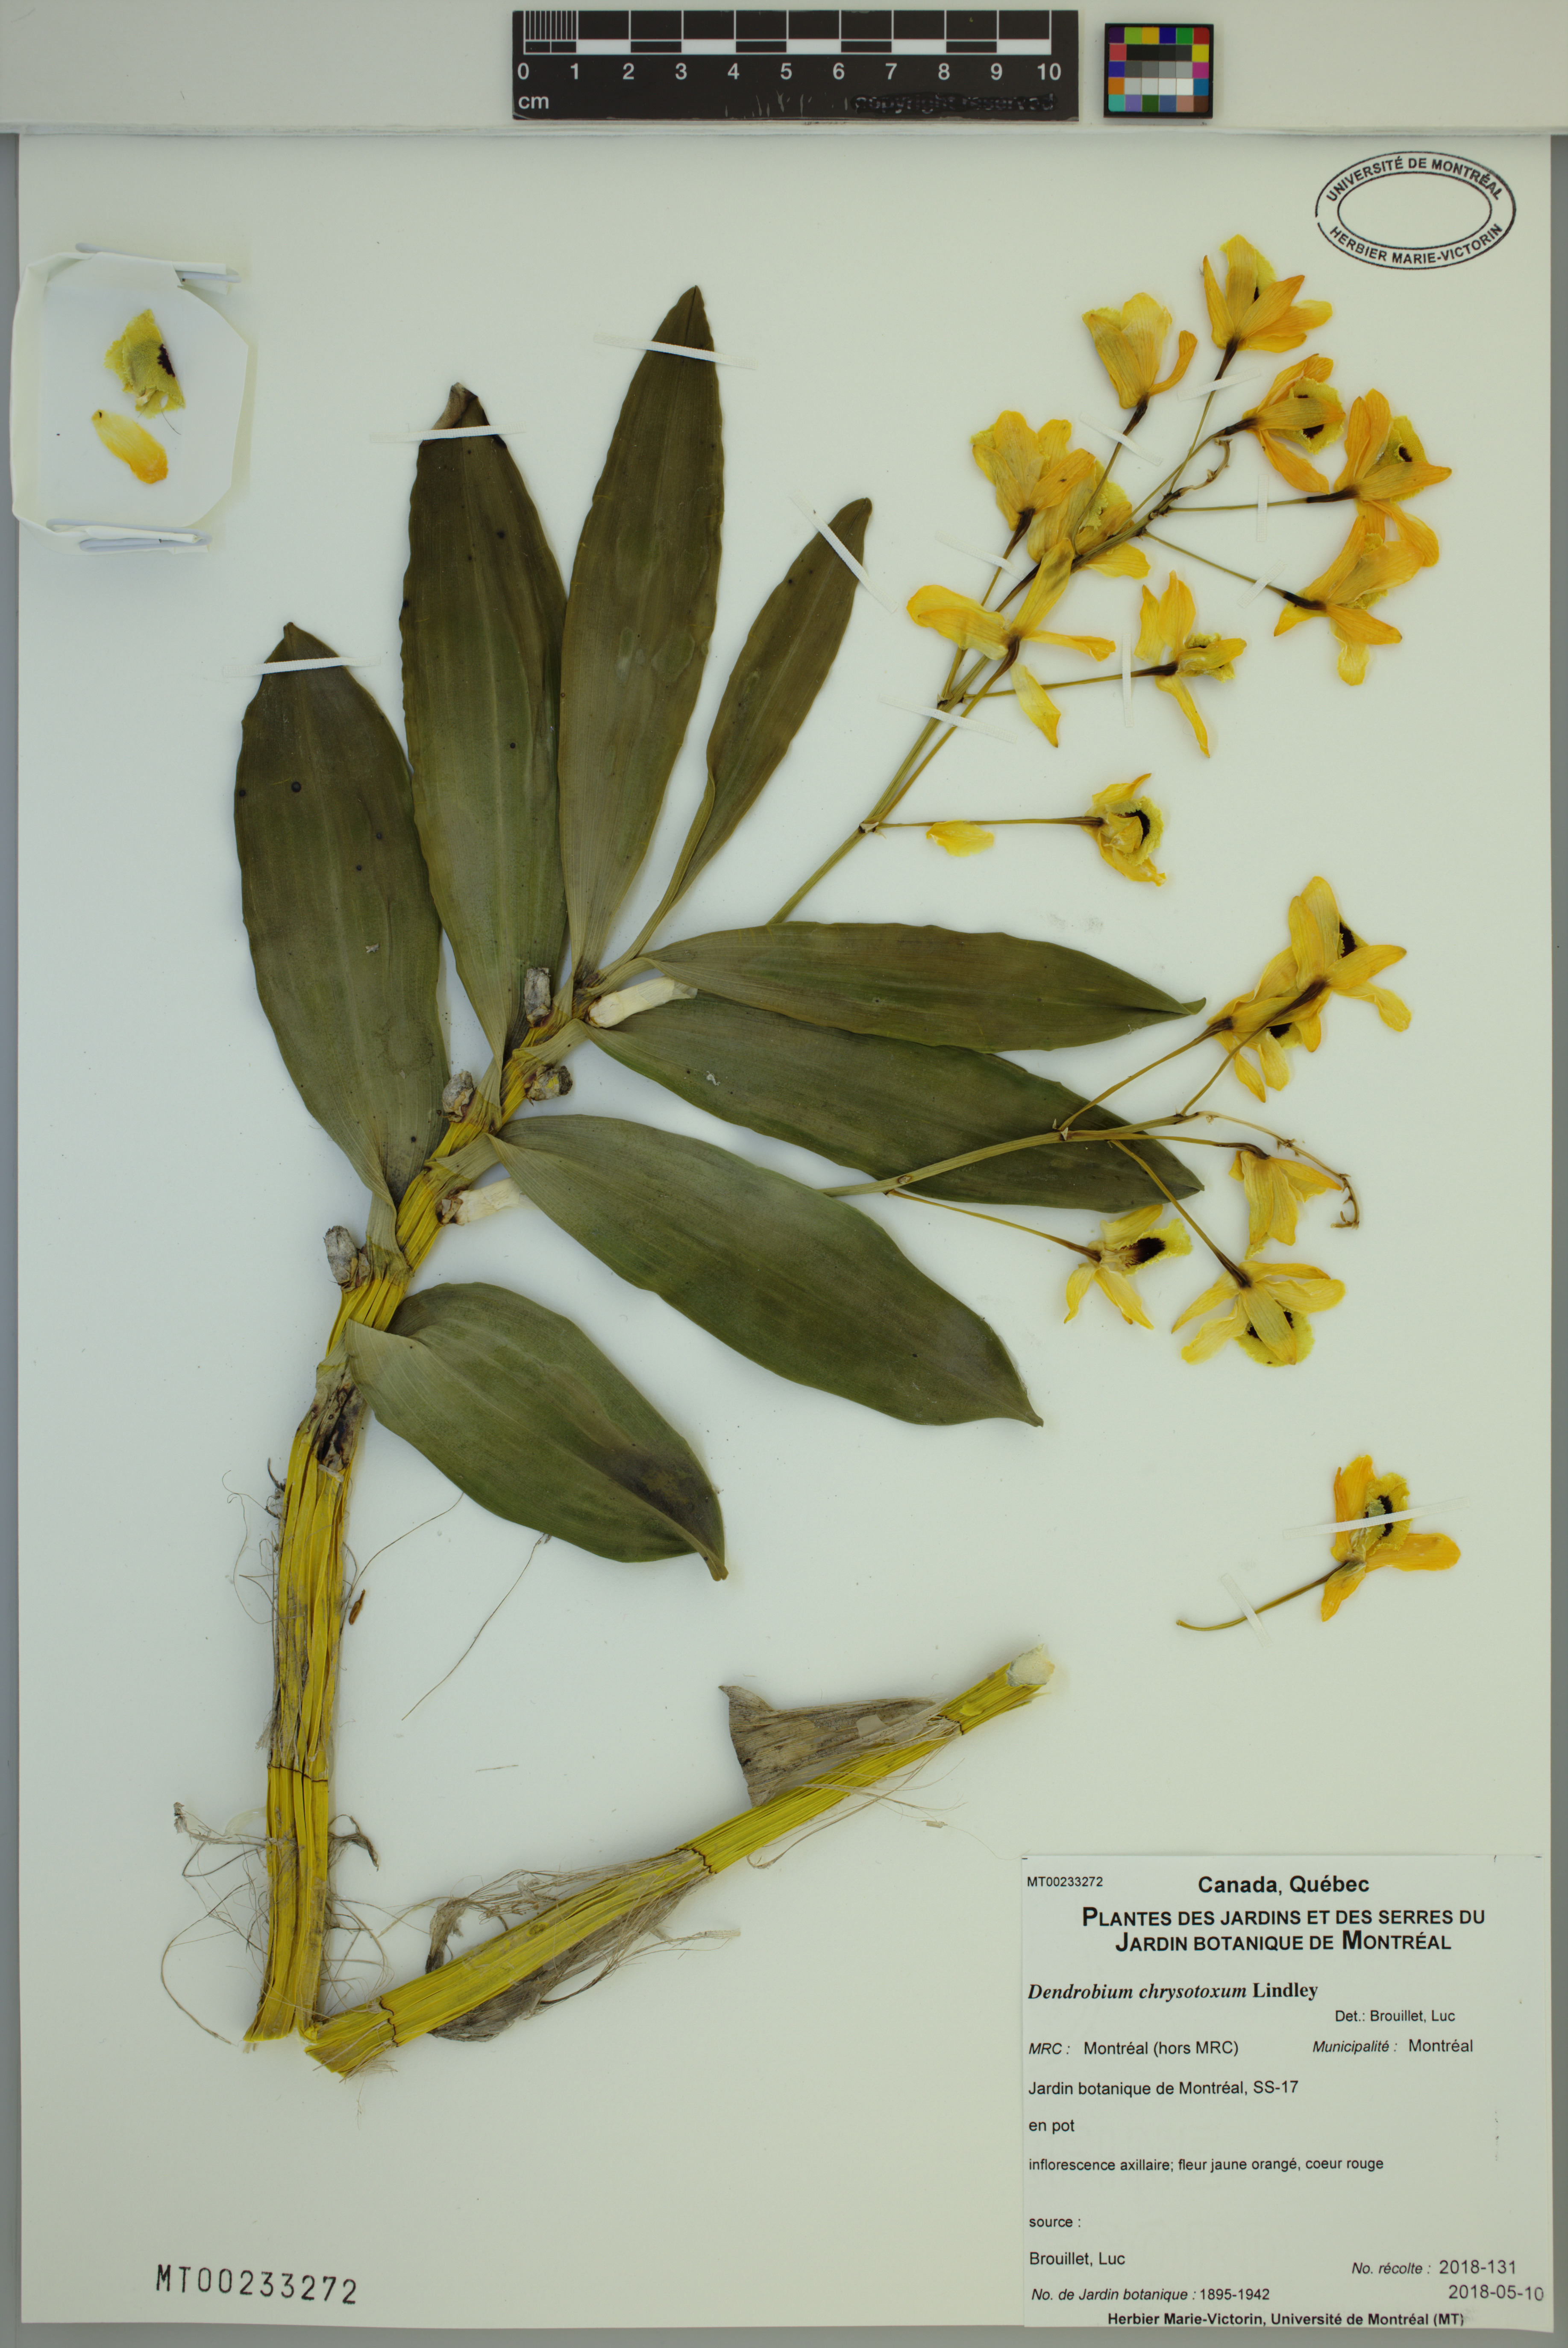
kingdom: Plantae
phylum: Tracheophyta
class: Liliopsida
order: Asparagales
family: Orchidaceae
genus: Dendrobium
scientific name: Dendrobium chrysotoxum
